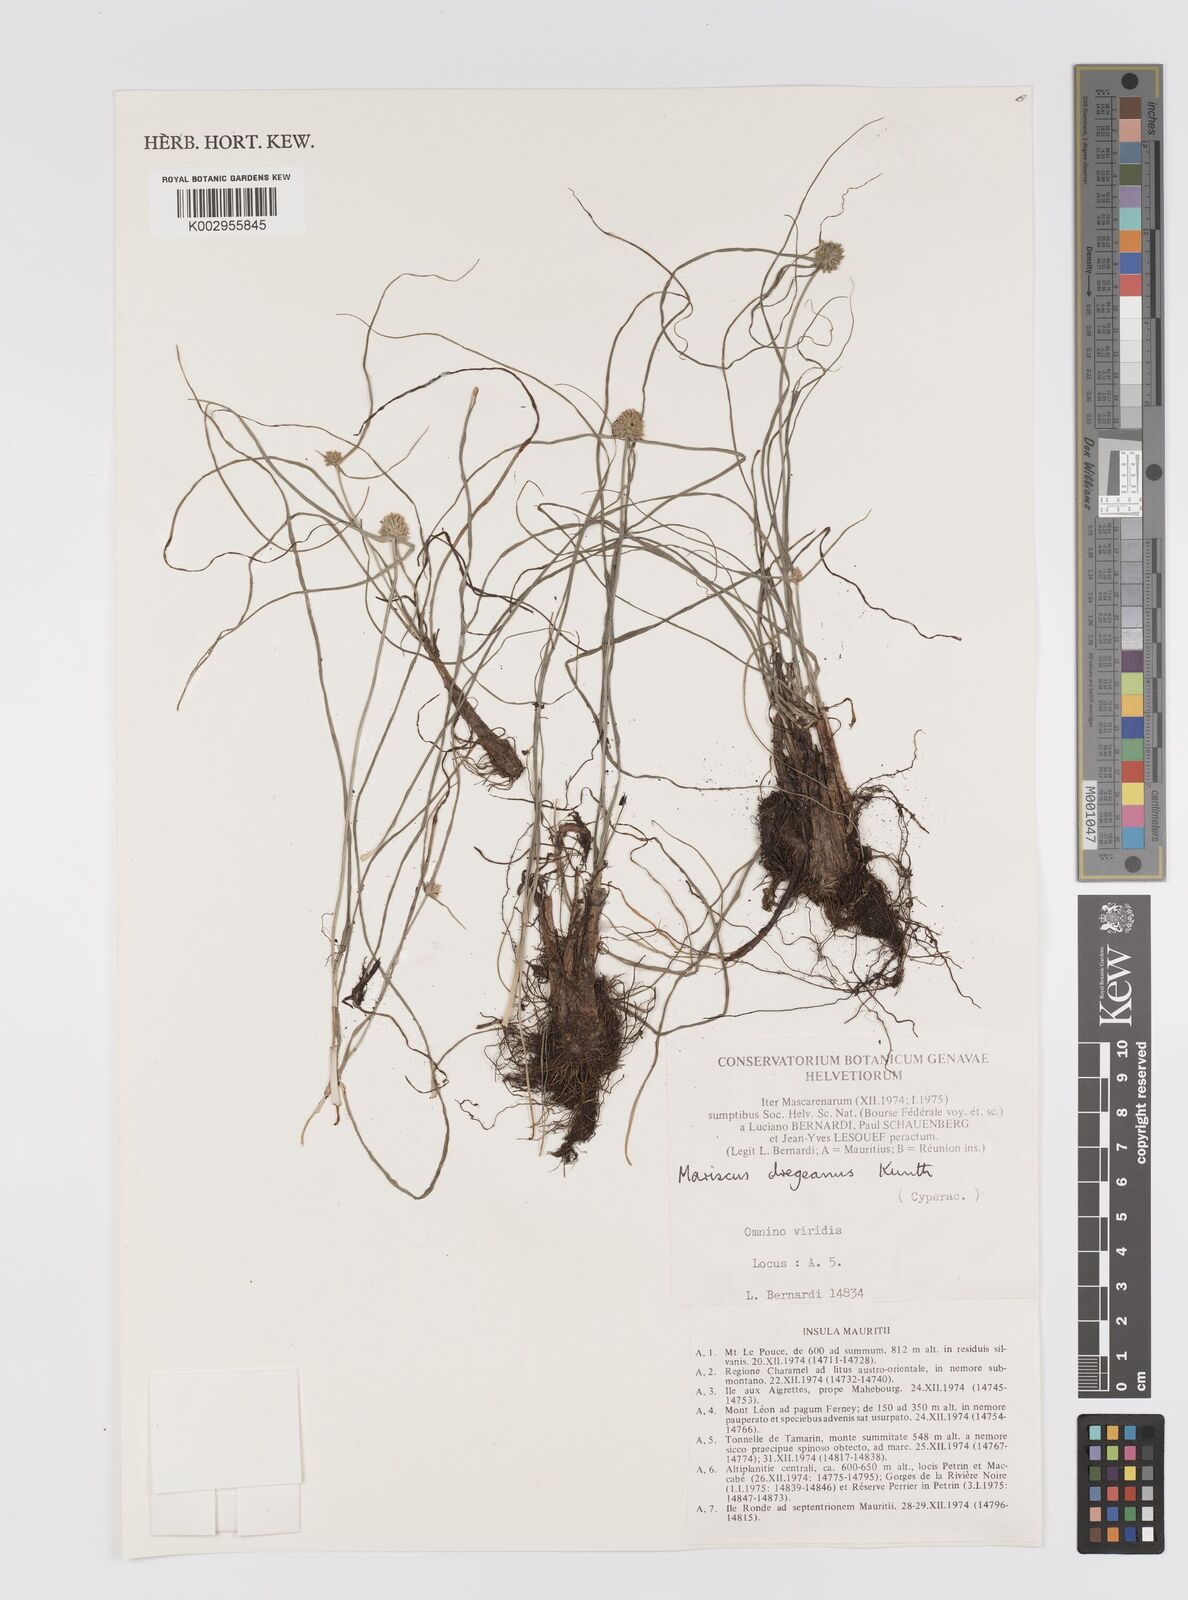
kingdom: Plantae
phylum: Tracheophyta
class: Liliopsida
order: Poales
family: Cyperaceae
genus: Cyperus
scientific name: Cyperus dubius
